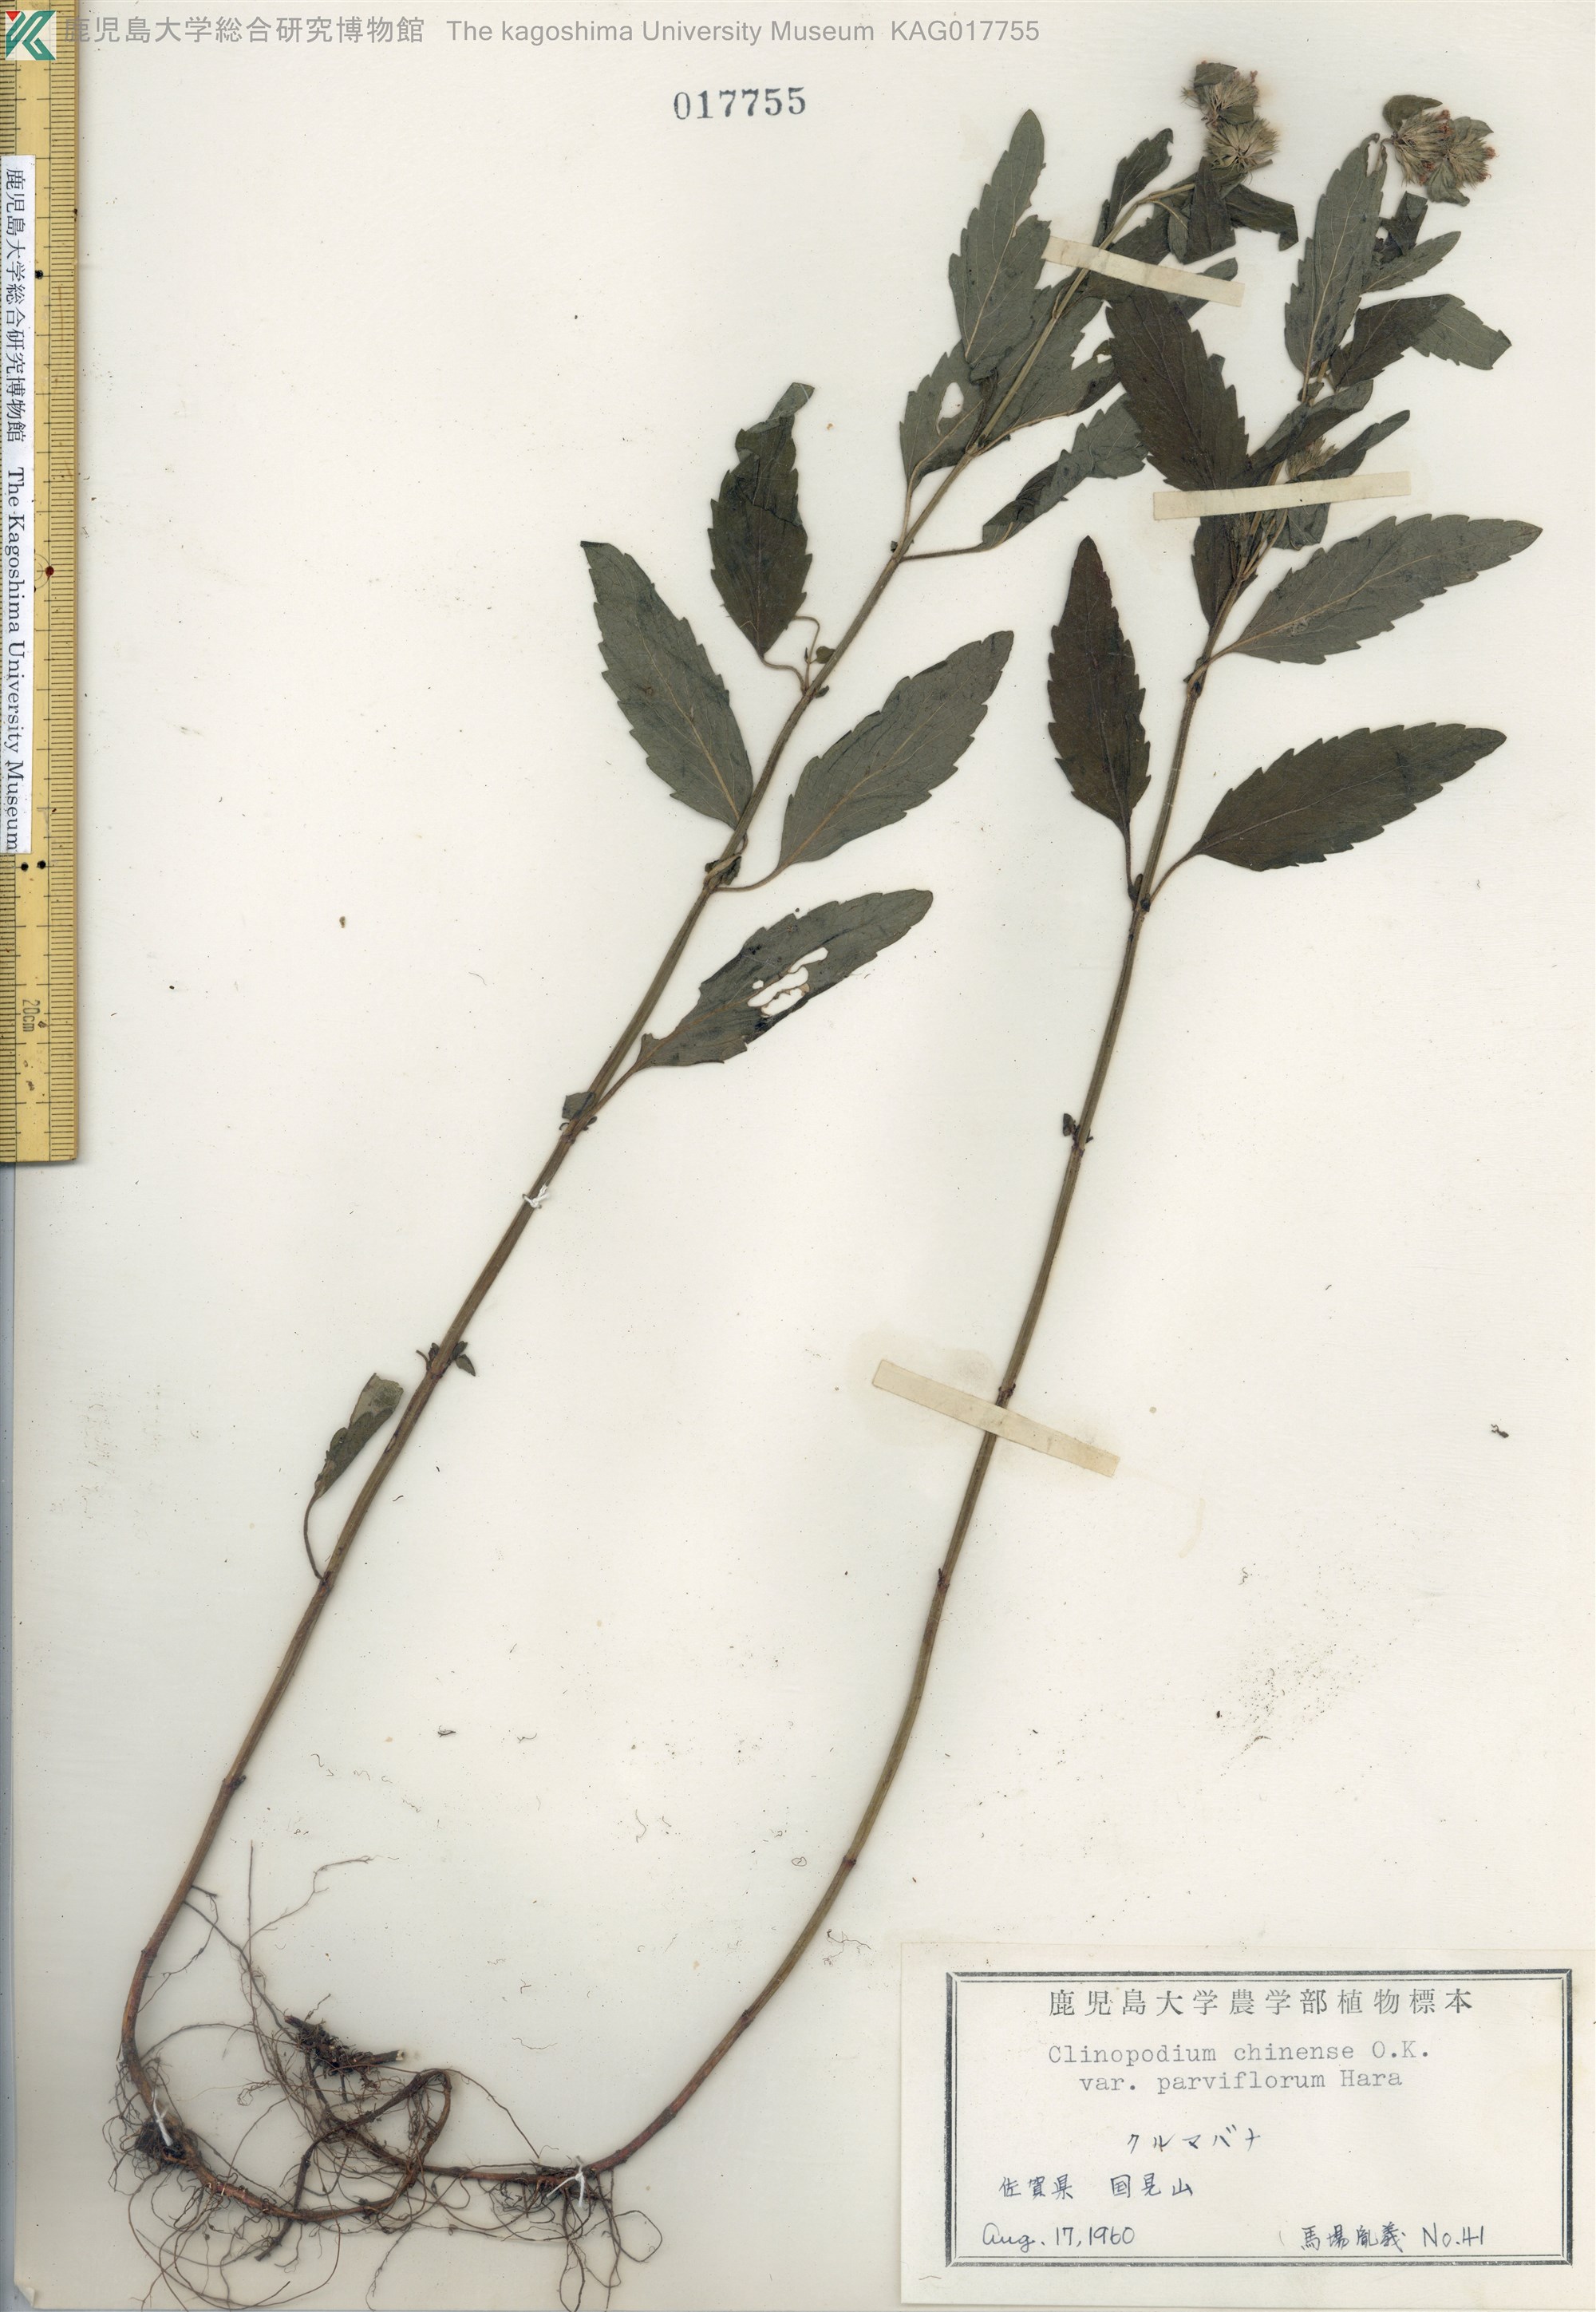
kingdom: Plantae
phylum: Tracheophyta
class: Magnoliopsida
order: Lamiales
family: Lamiaceae
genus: Clinopodium
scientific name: Clinopodium chinense
